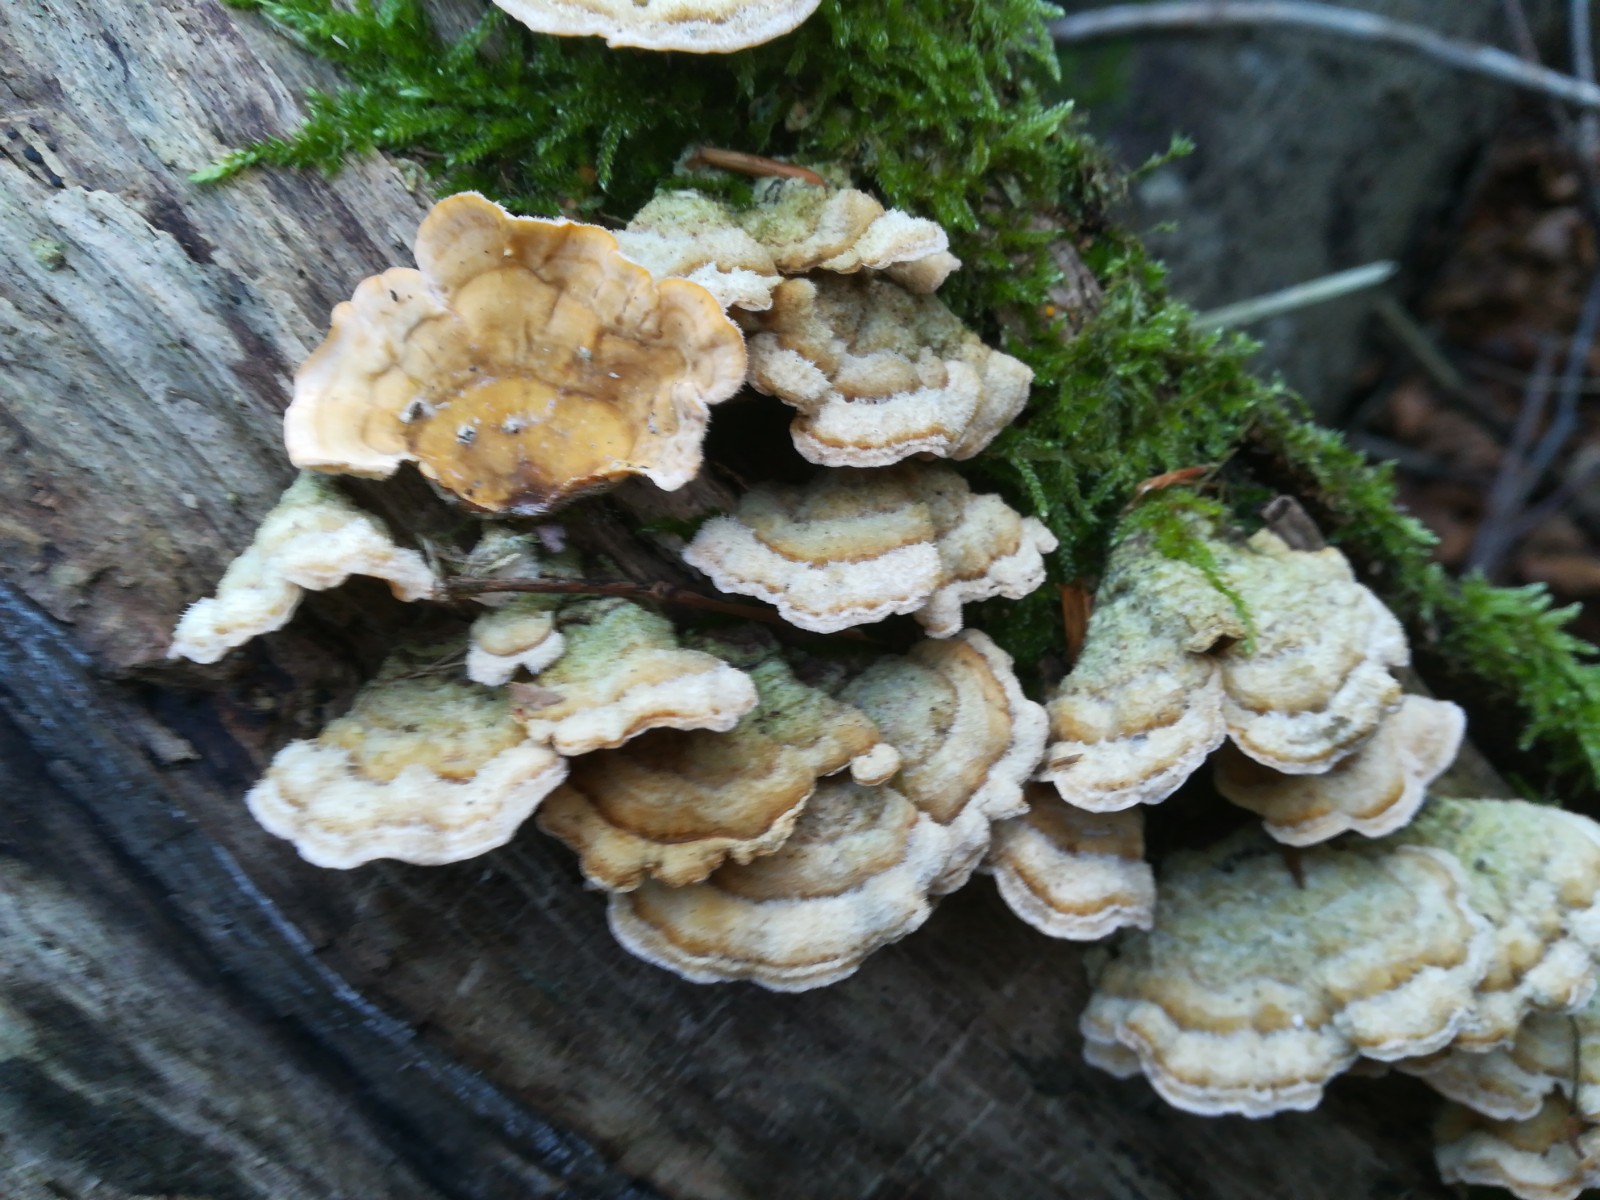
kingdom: Fungi
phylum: Basidiomycota
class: Agaricomycetes
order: Russulales
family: Stereaceae
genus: Stereum
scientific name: Stereum hirsutum
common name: håret lædersvamp
